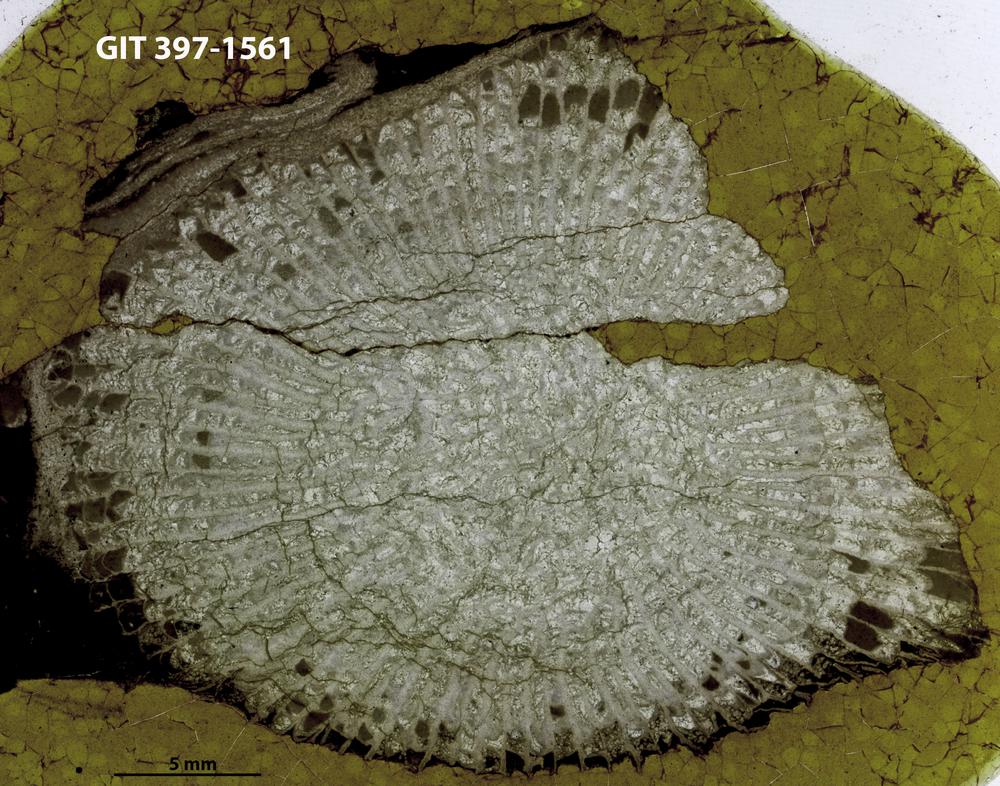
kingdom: Animalia
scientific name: Animalia
